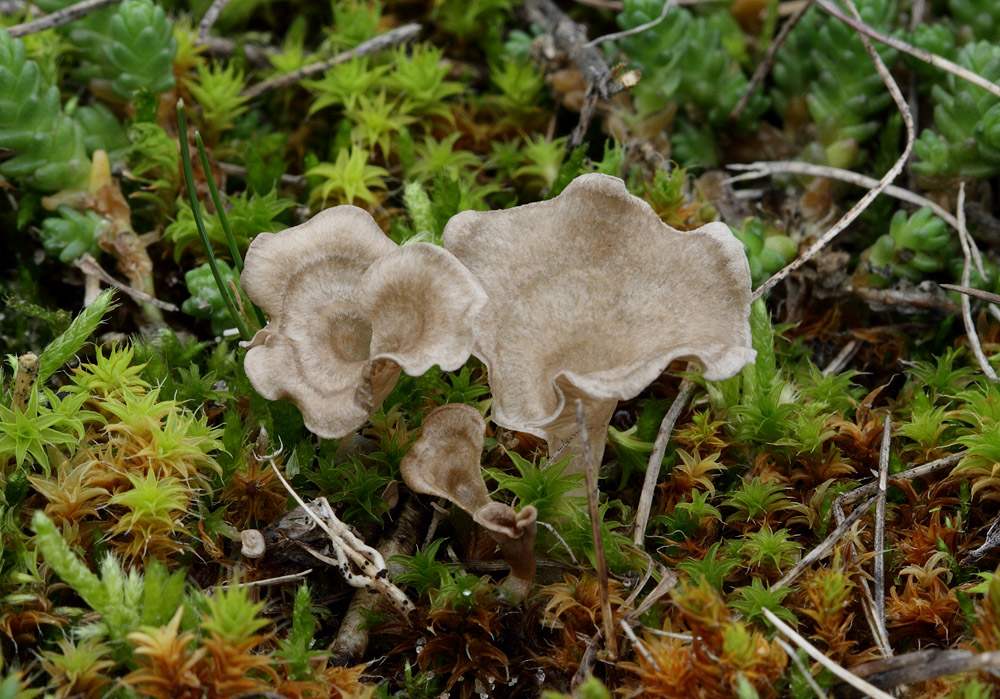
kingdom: Fungi
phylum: Basidiomycota
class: Agaricomycetes
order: Agaricales
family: Hygrophoraceae
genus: Arrhenia
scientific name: Arrhenia spathulata
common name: skæv fontænehat
